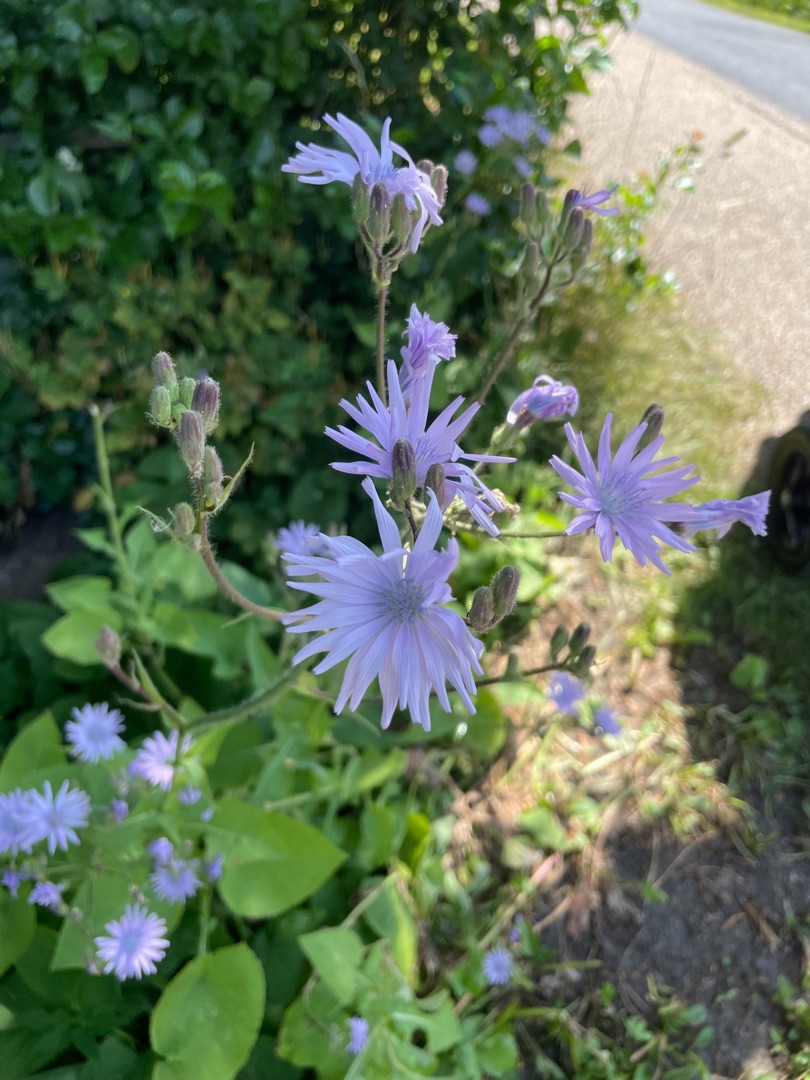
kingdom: Plantae
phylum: Tracheophyta
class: Magnoliopsida
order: Asterales
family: Asteraceae
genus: Lactuca
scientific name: Lactuca macrophylla
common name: Kæmpe-salat
